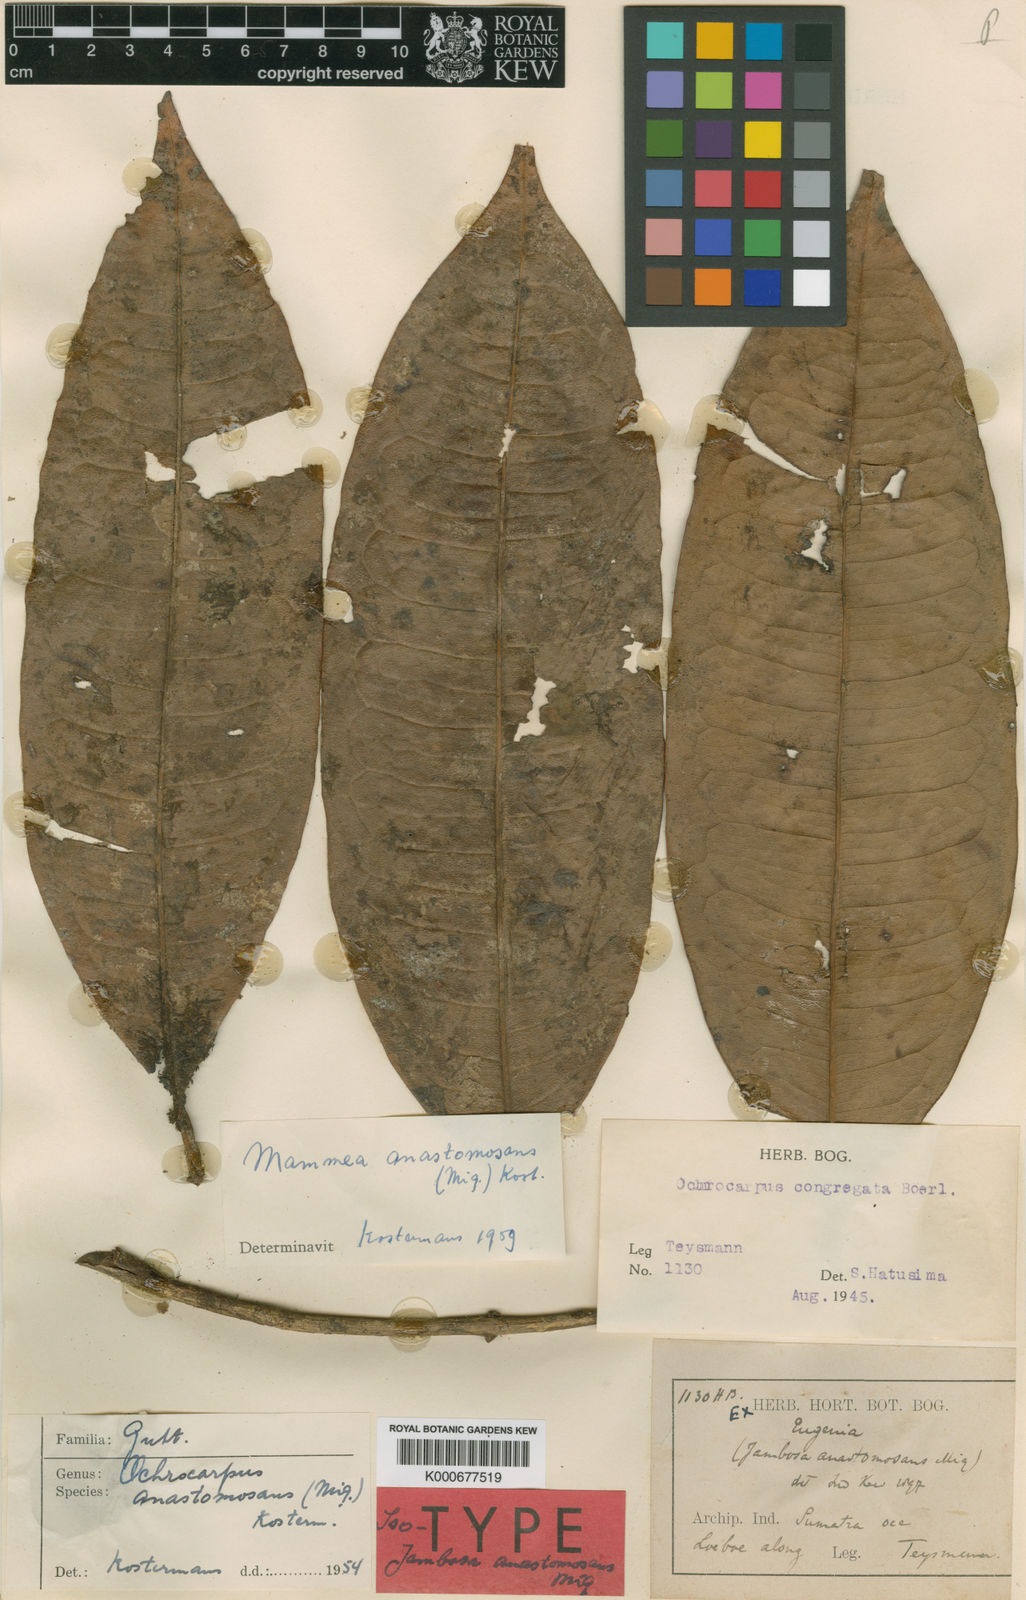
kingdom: Plantae
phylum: Tracheophyta
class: Magnoliopsida
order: Malpighiales
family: Calophyllaceae
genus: Mammea
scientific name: Mammea anastomosans
